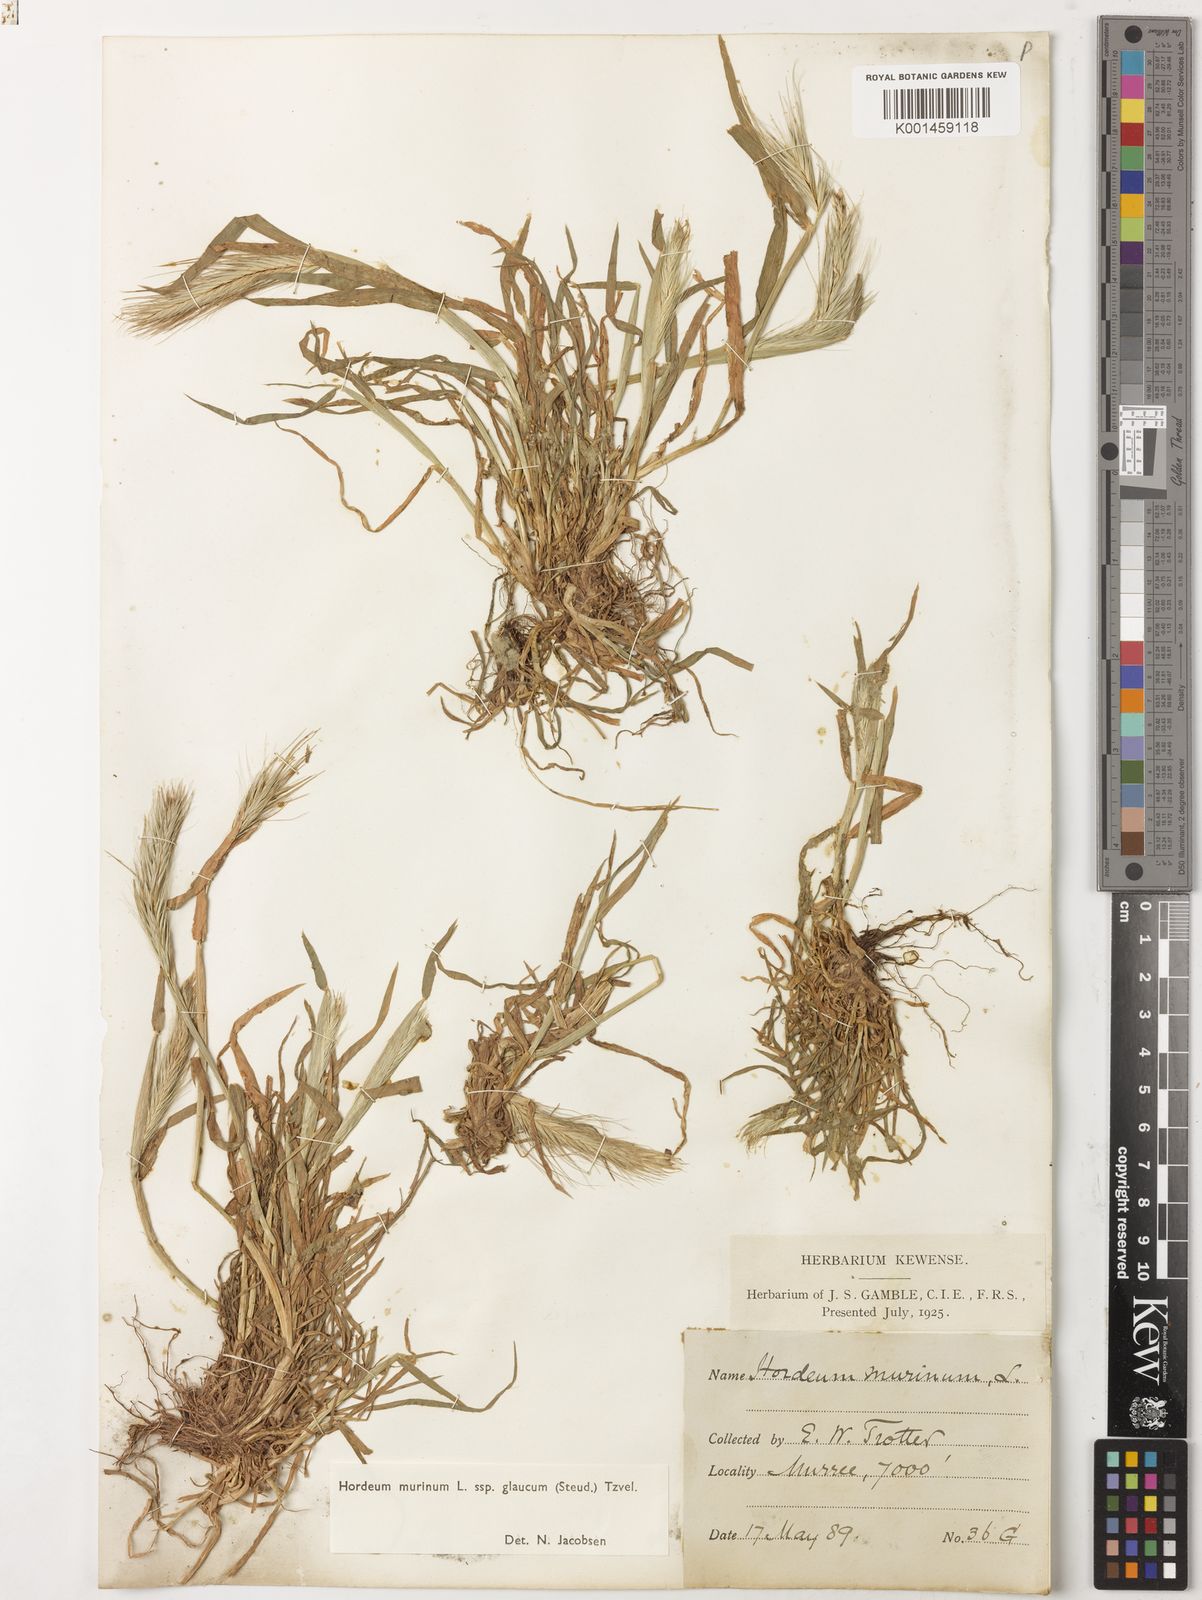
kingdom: Plantae
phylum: Tracheophyta
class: Liliopsida
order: Poales
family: Poaceae
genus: Hordeum
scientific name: Hordeum murinum
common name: Wall barley
